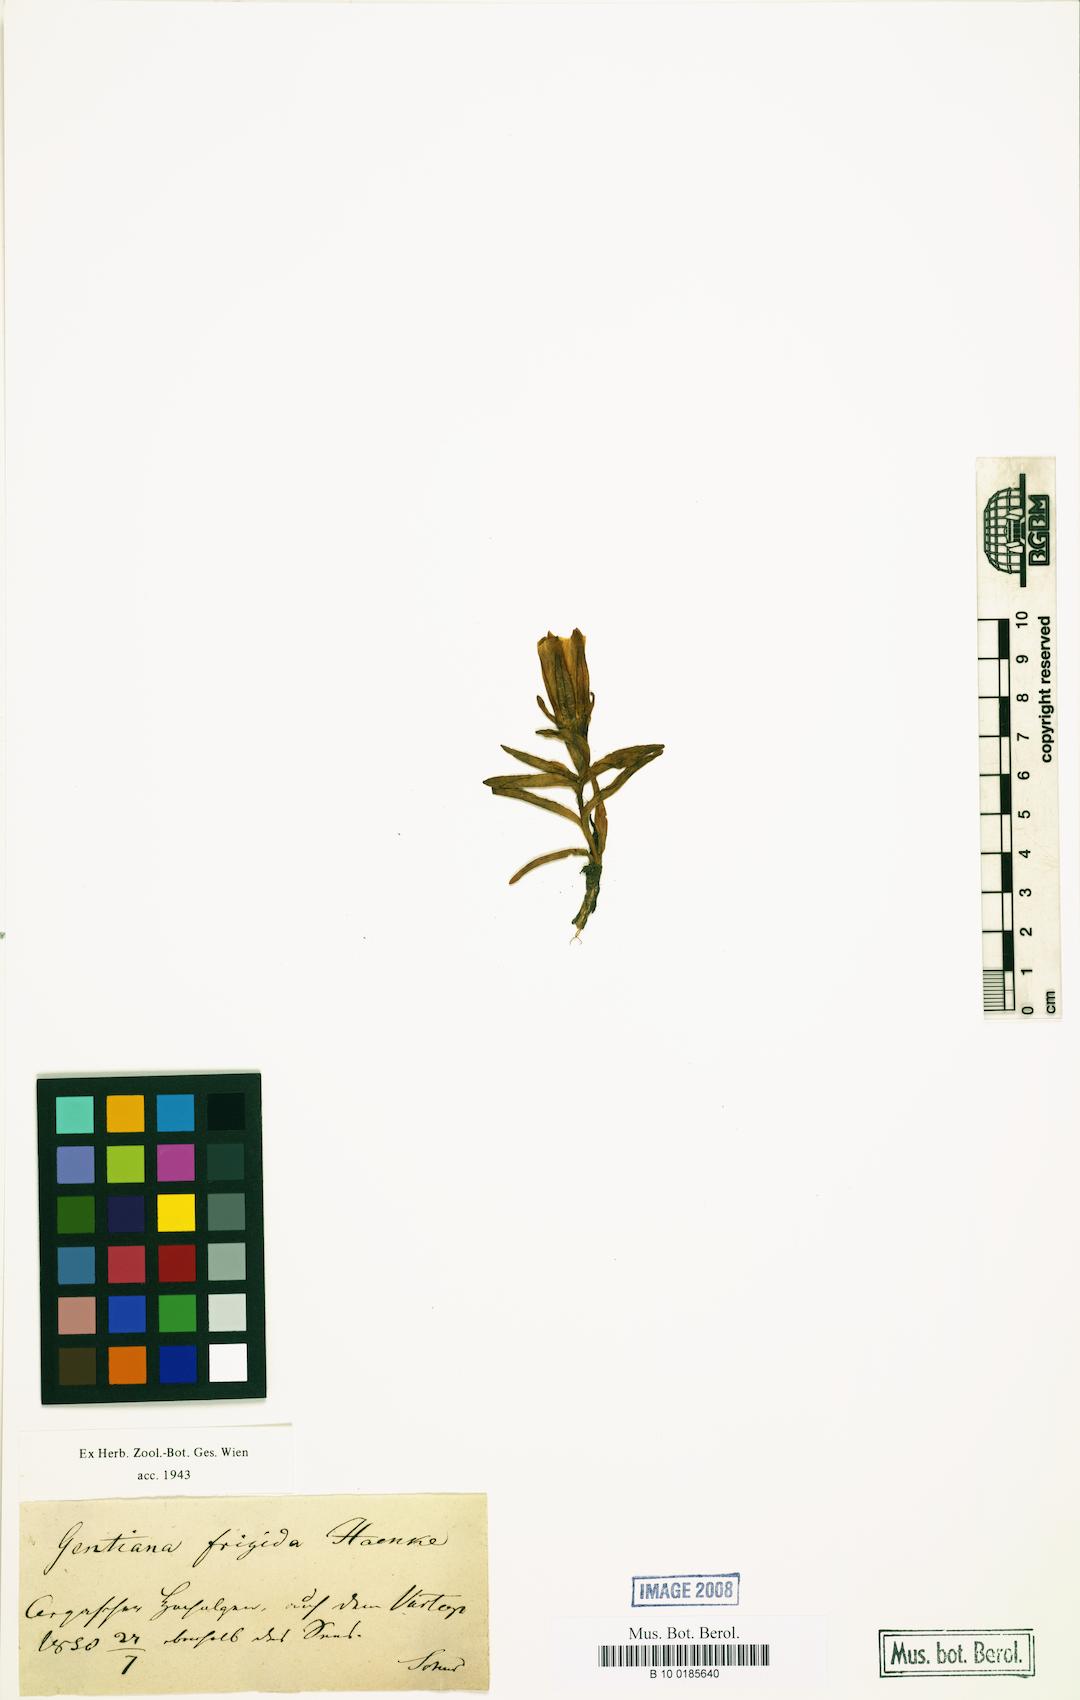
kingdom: Plantae
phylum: Tracheophyta
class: Magnoliopsida
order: Gentianales
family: Gentianaceae
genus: Gentiana
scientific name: Gentiana frigida
